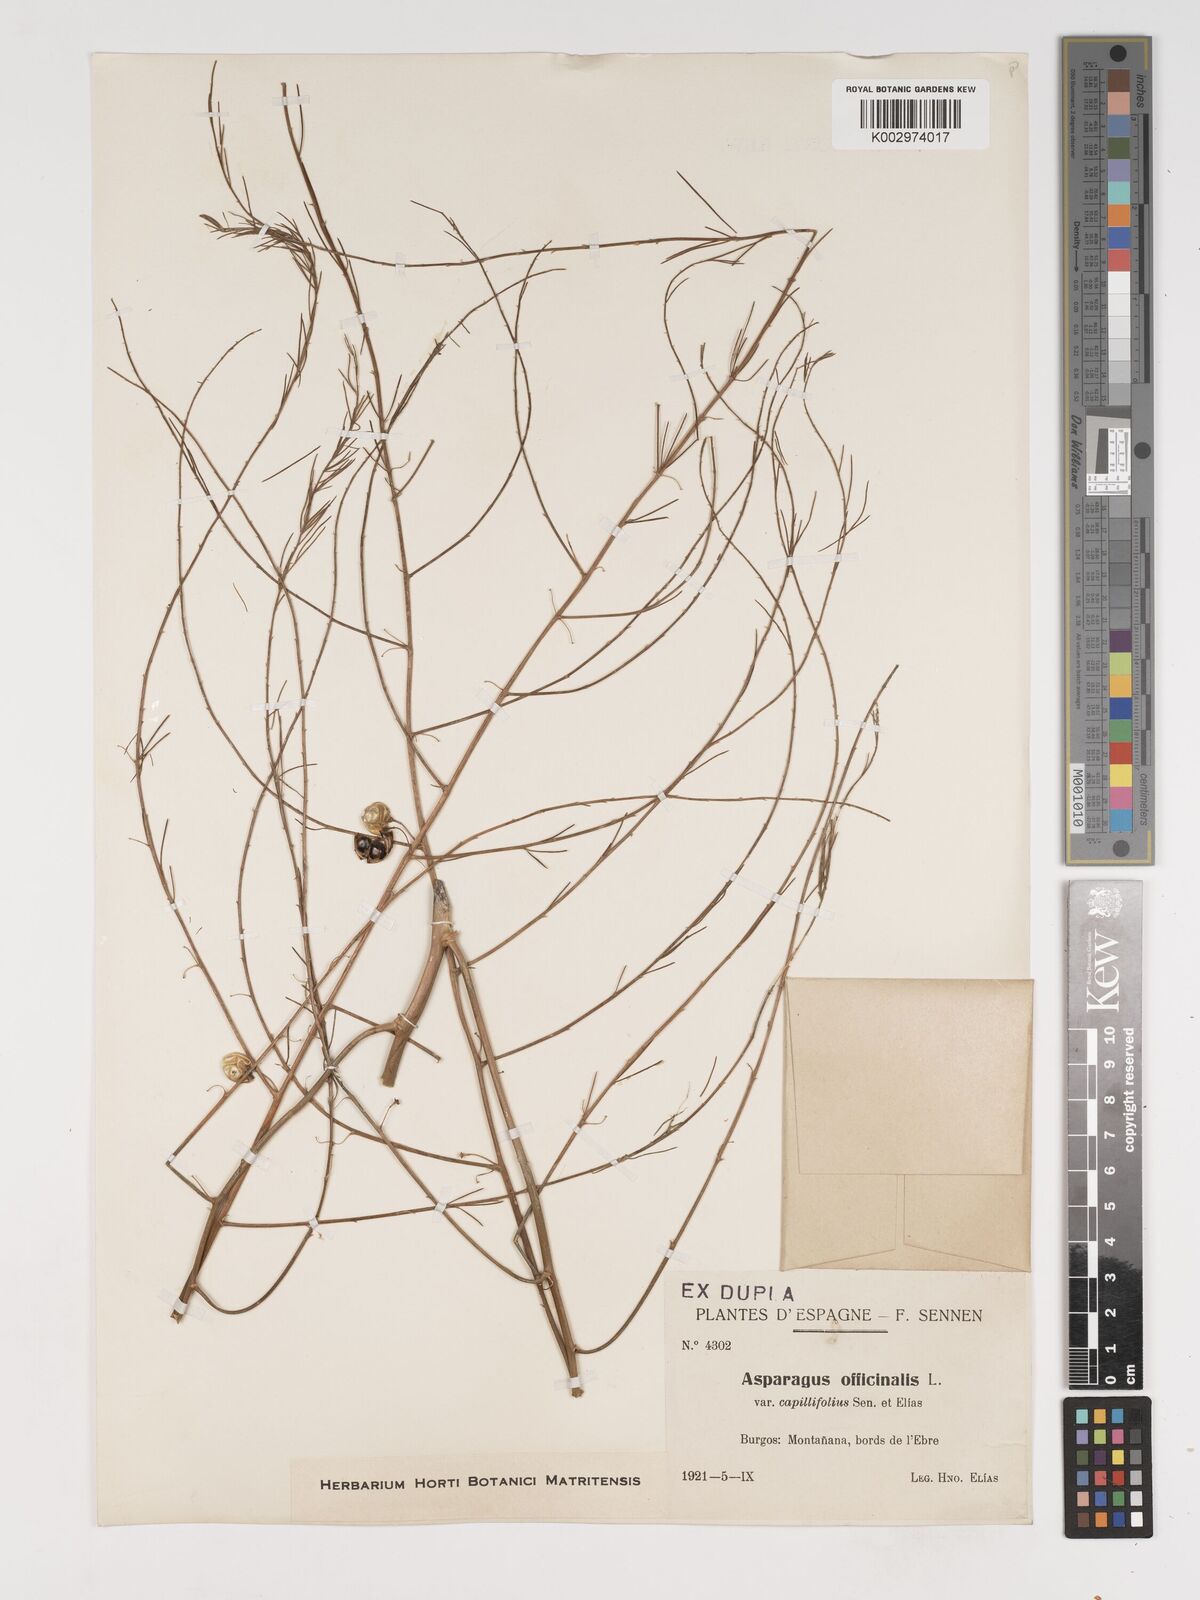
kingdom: Plantae
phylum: Tracheophyta
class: Liliopsida
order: Asparagales
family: Asparagaceae
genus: Asparagus
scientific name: Asparagus officinalis
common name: Garden asparagus
